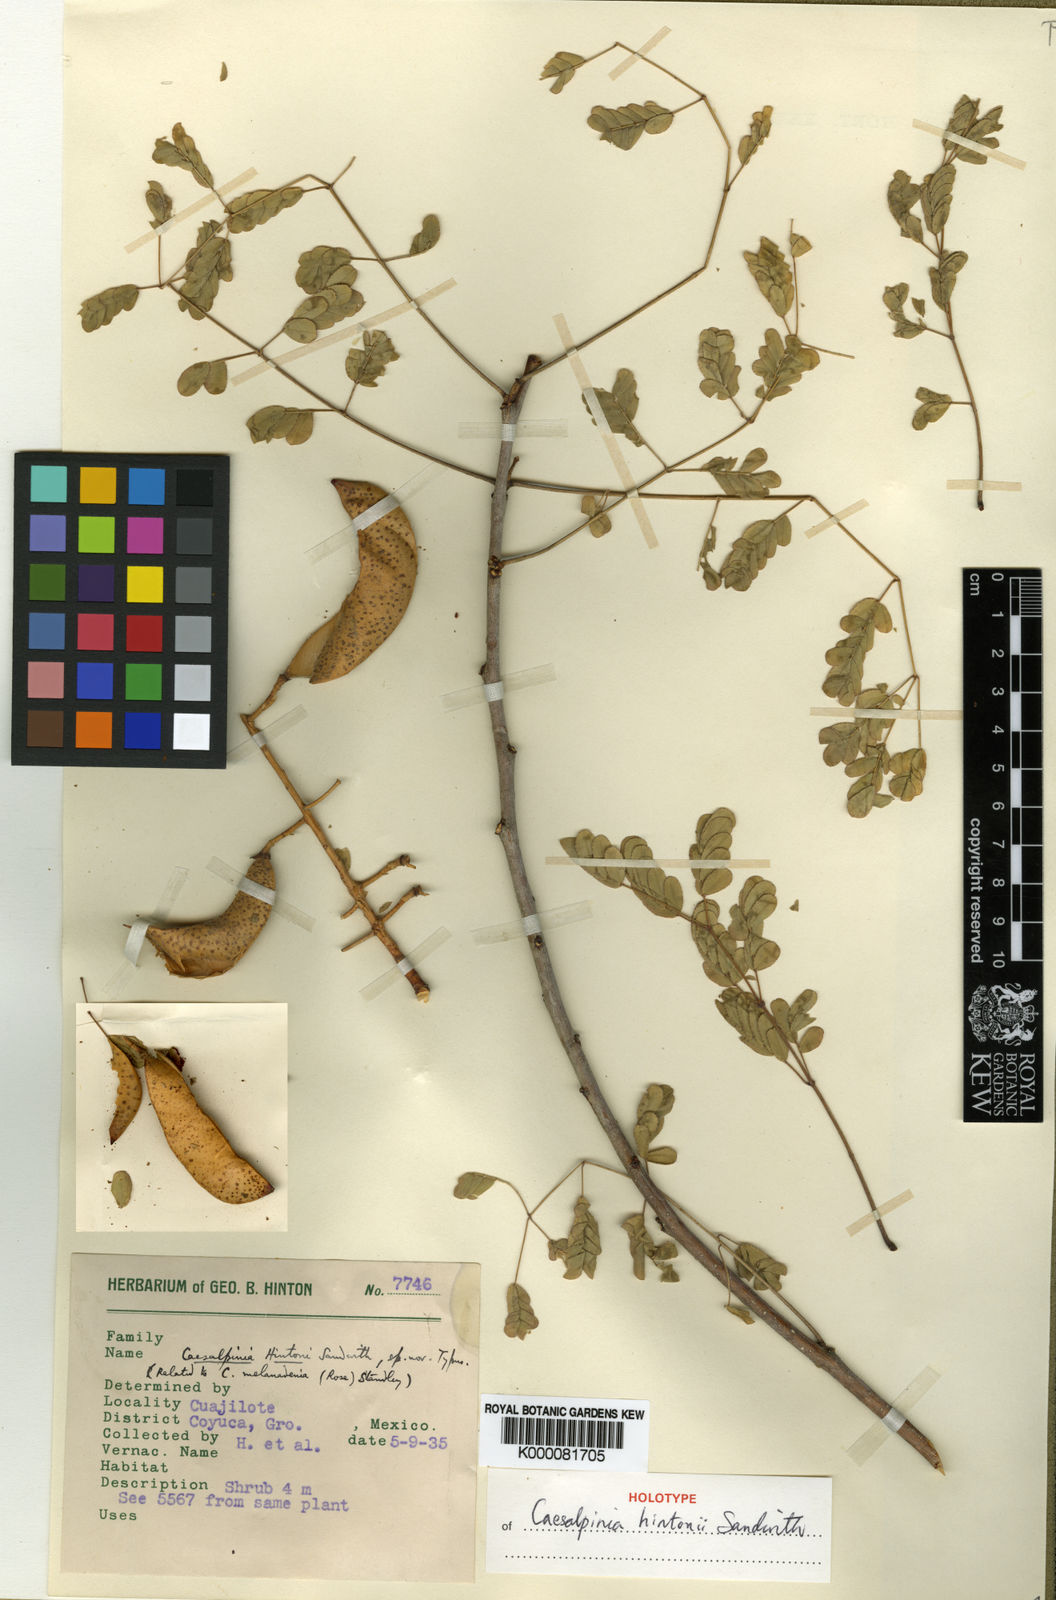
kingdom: Plantae
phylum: Tracheophyta
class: Magnoliopsida
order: Fabales
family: Fabaceae
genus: Erythrostemon
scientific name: Erythrostemon hintonii
